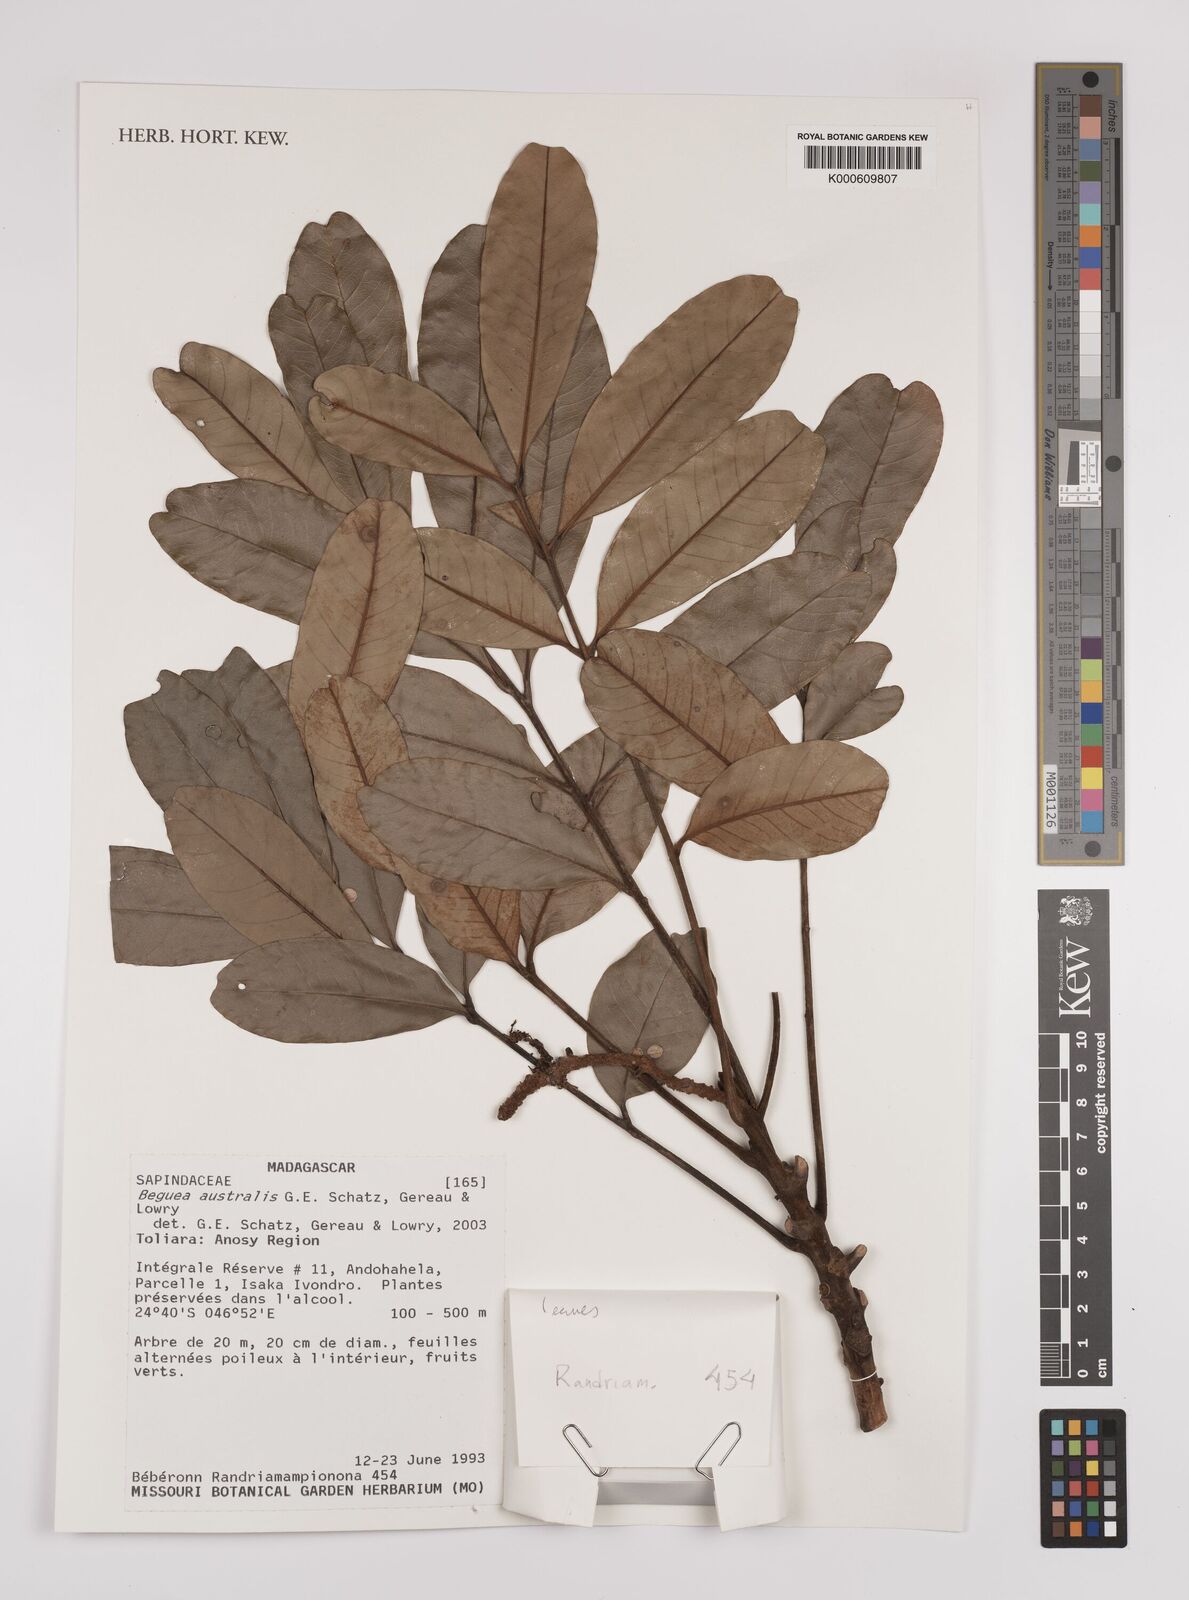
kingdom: Plantae
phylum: Tracheophyta
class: Magnoliopsida
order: Sapindales
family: Sapindaceae
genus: Beguea
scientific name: Beguea australis
